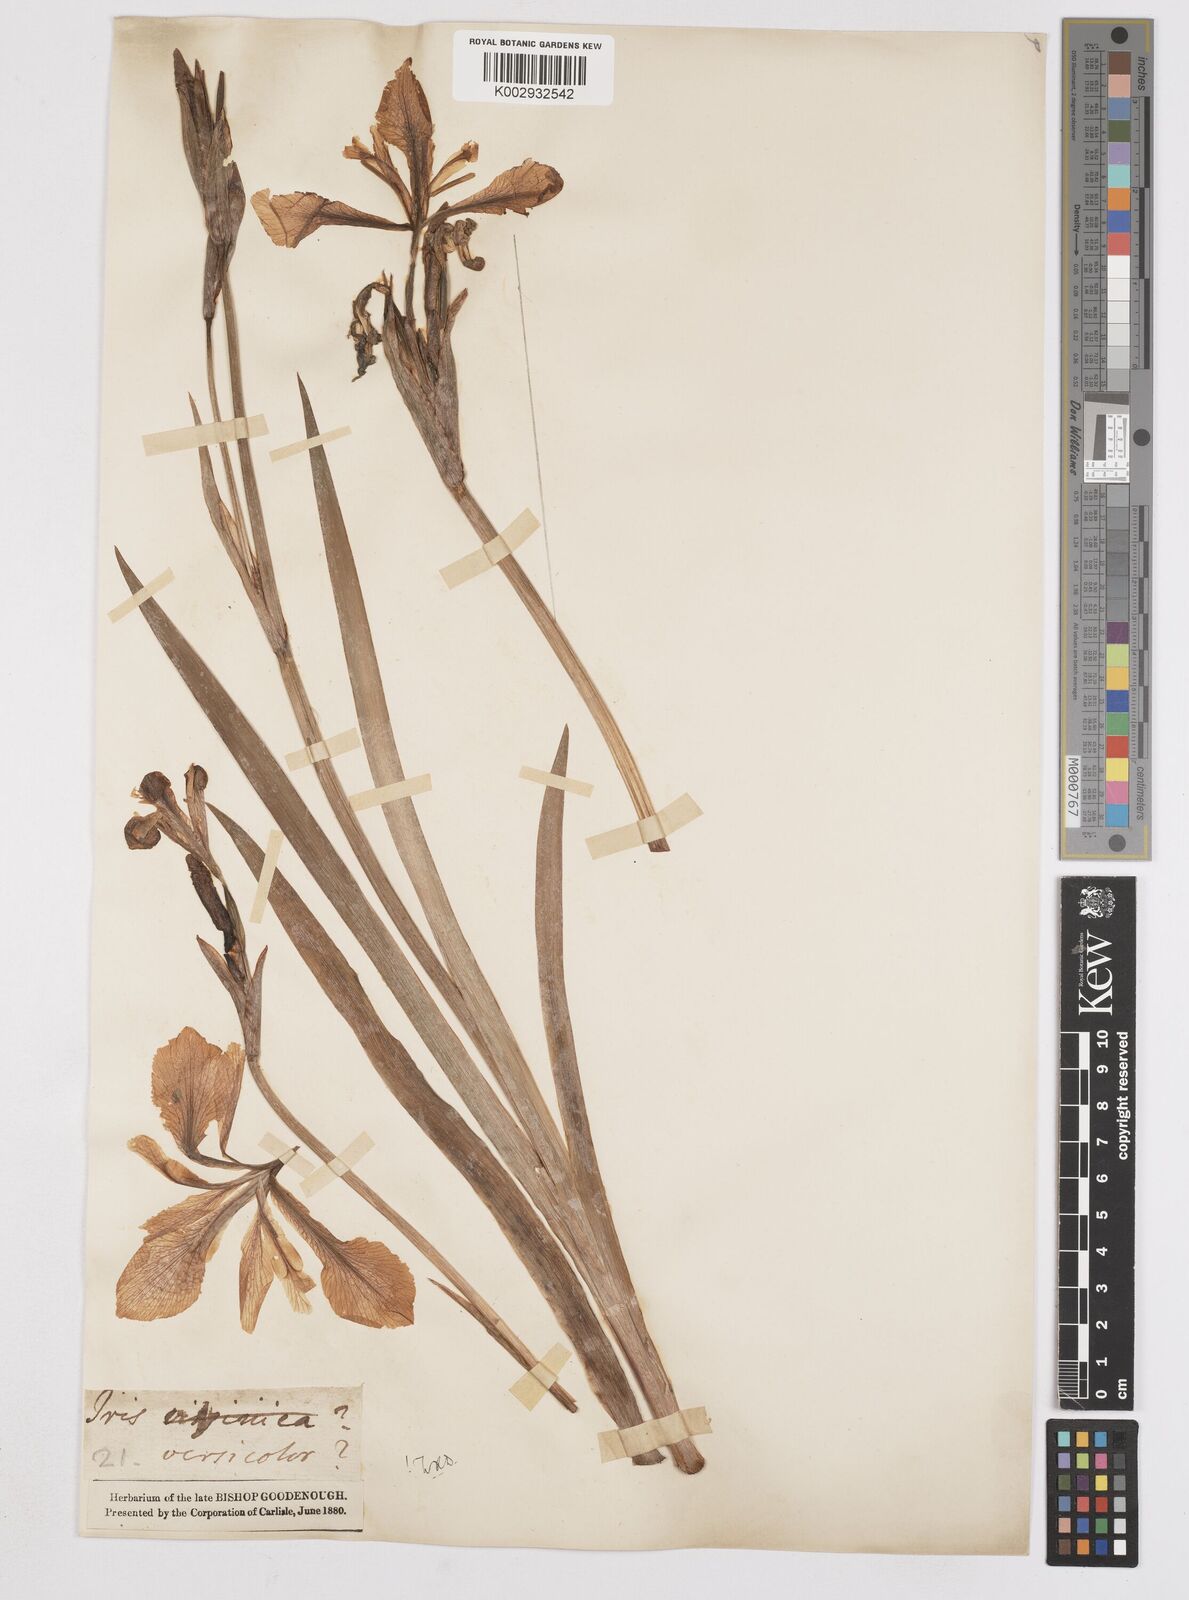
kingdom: Plantae
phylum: Tracheophyta
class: Liliopsida
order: Asparagales
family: Iridaceae
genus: Iris
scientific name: Iris versicolor
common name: Purple iris
